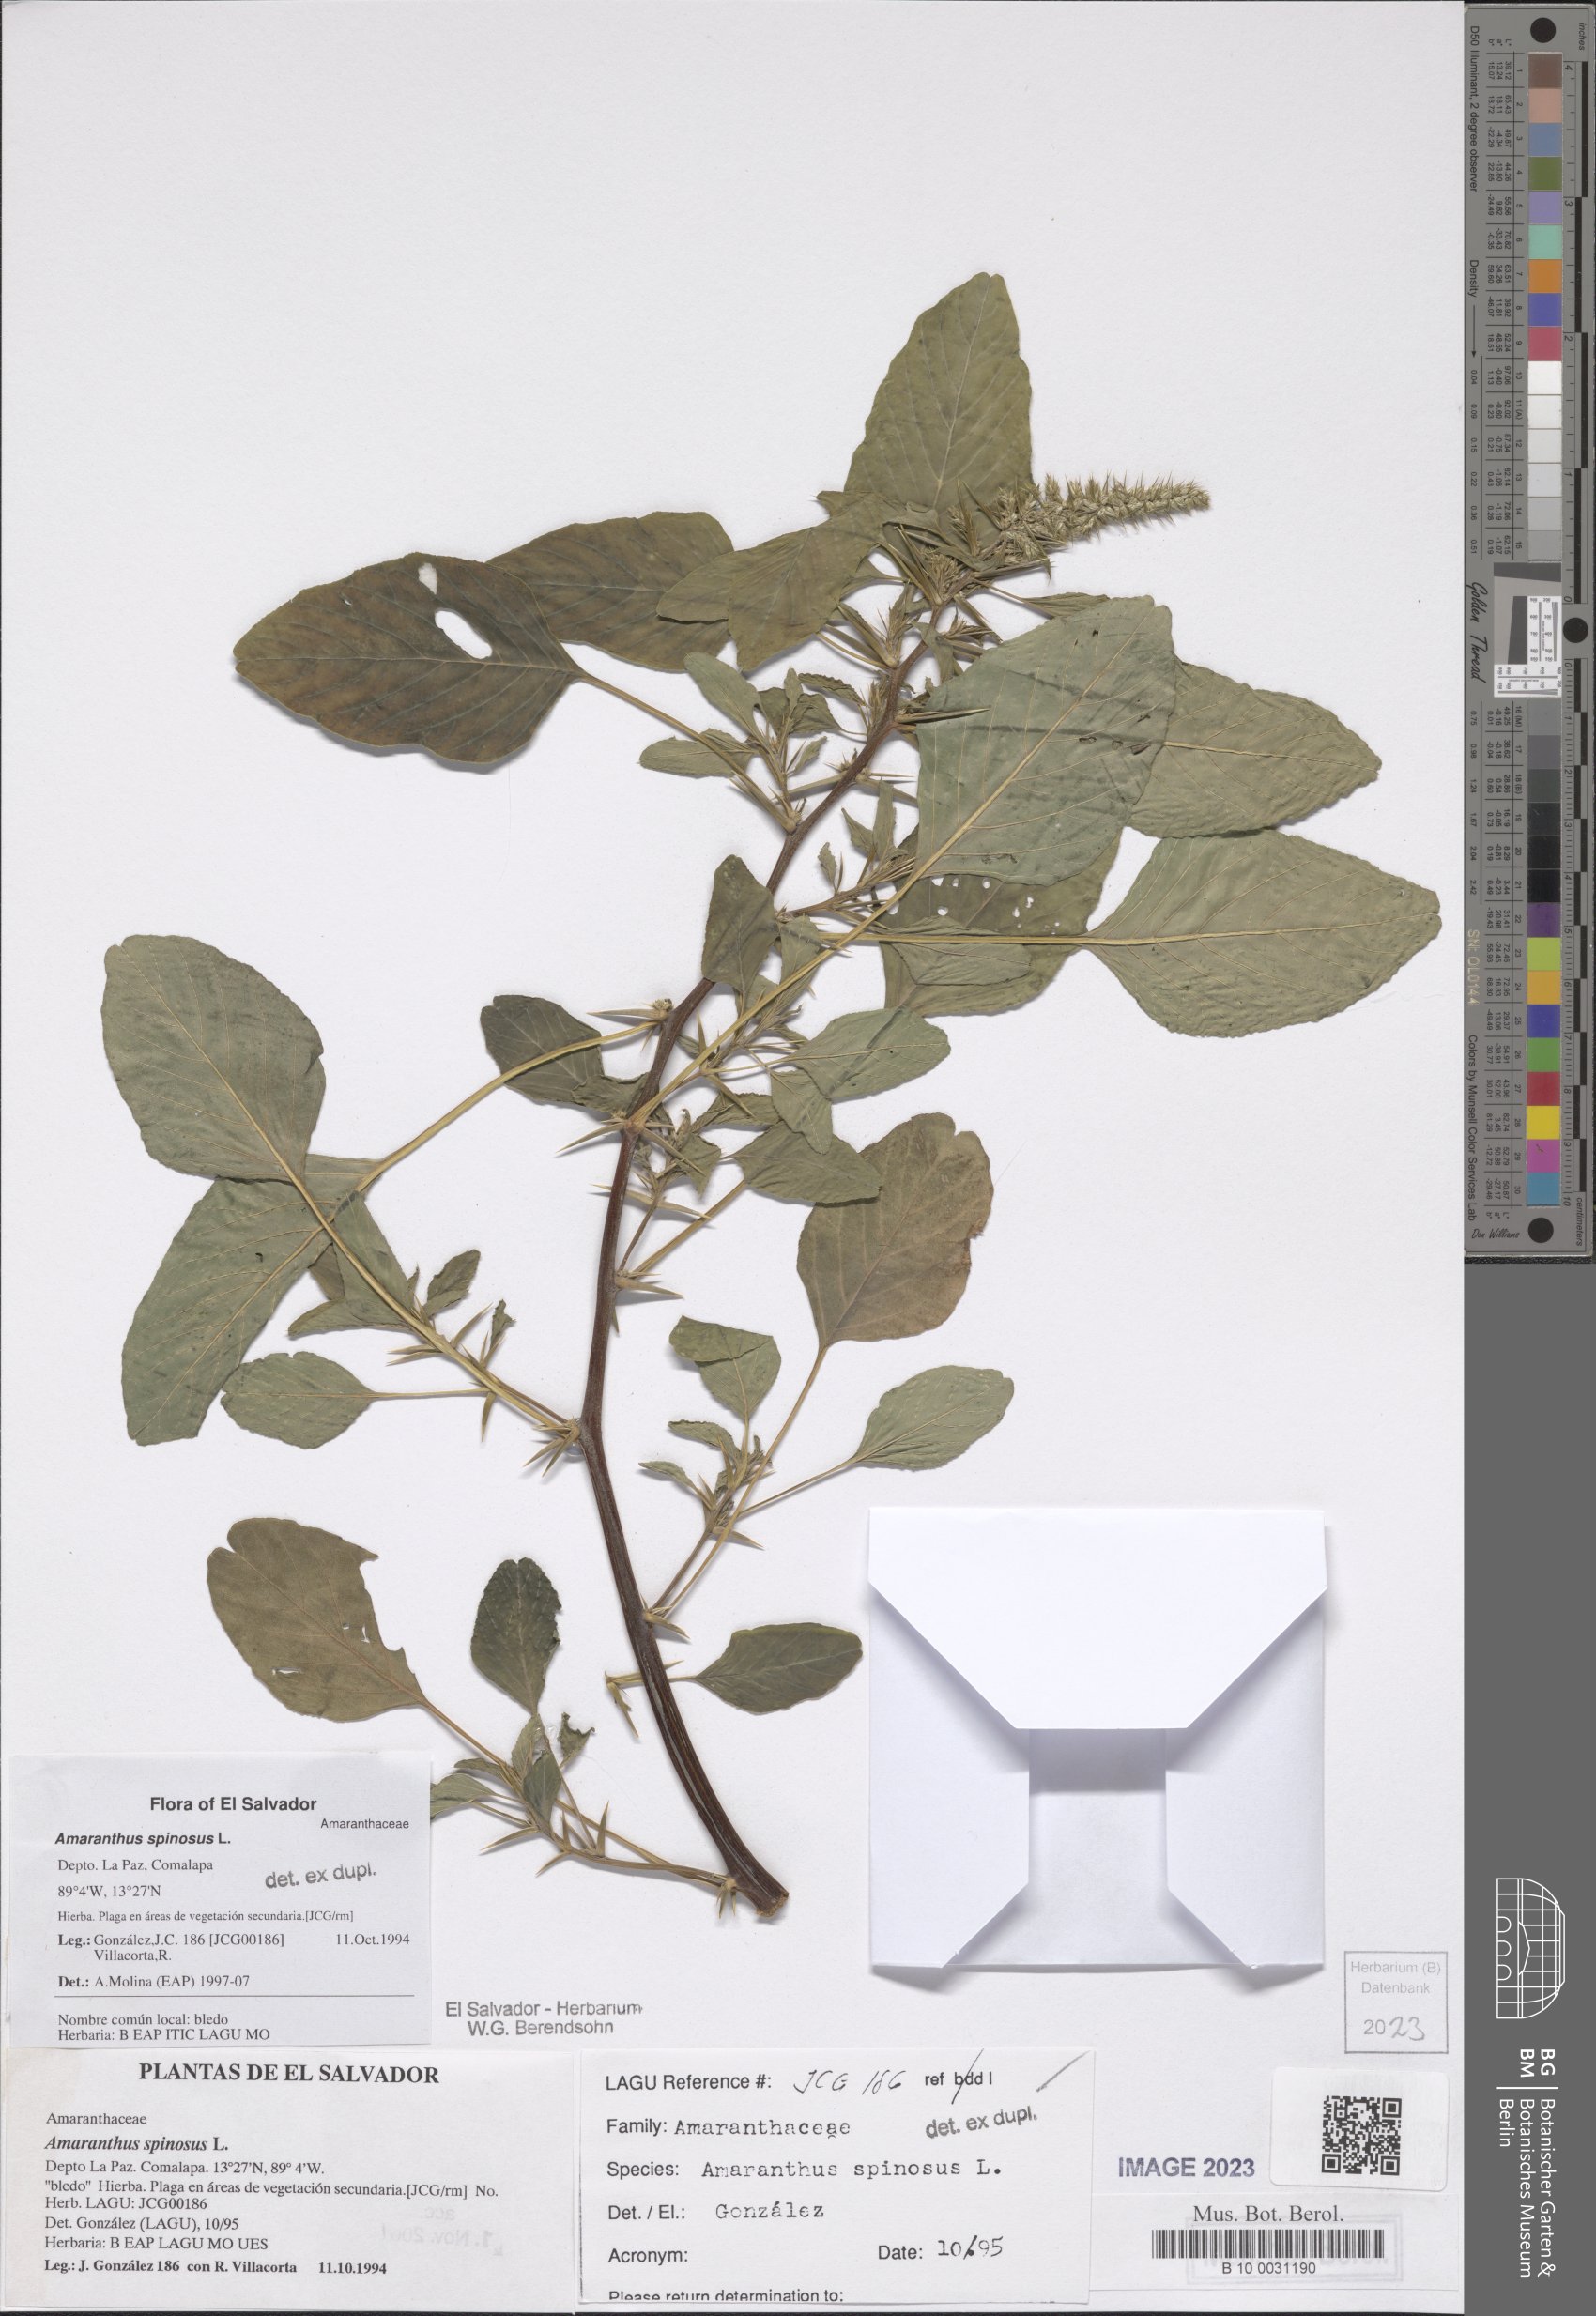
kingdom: Plantae
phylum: Tracheophyta
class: Magnoliopsida
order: Caryophyllales
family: Amaranthaceae
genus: Amaranthus
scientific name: Amaranthus spinosus
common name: Spiny amaranth
